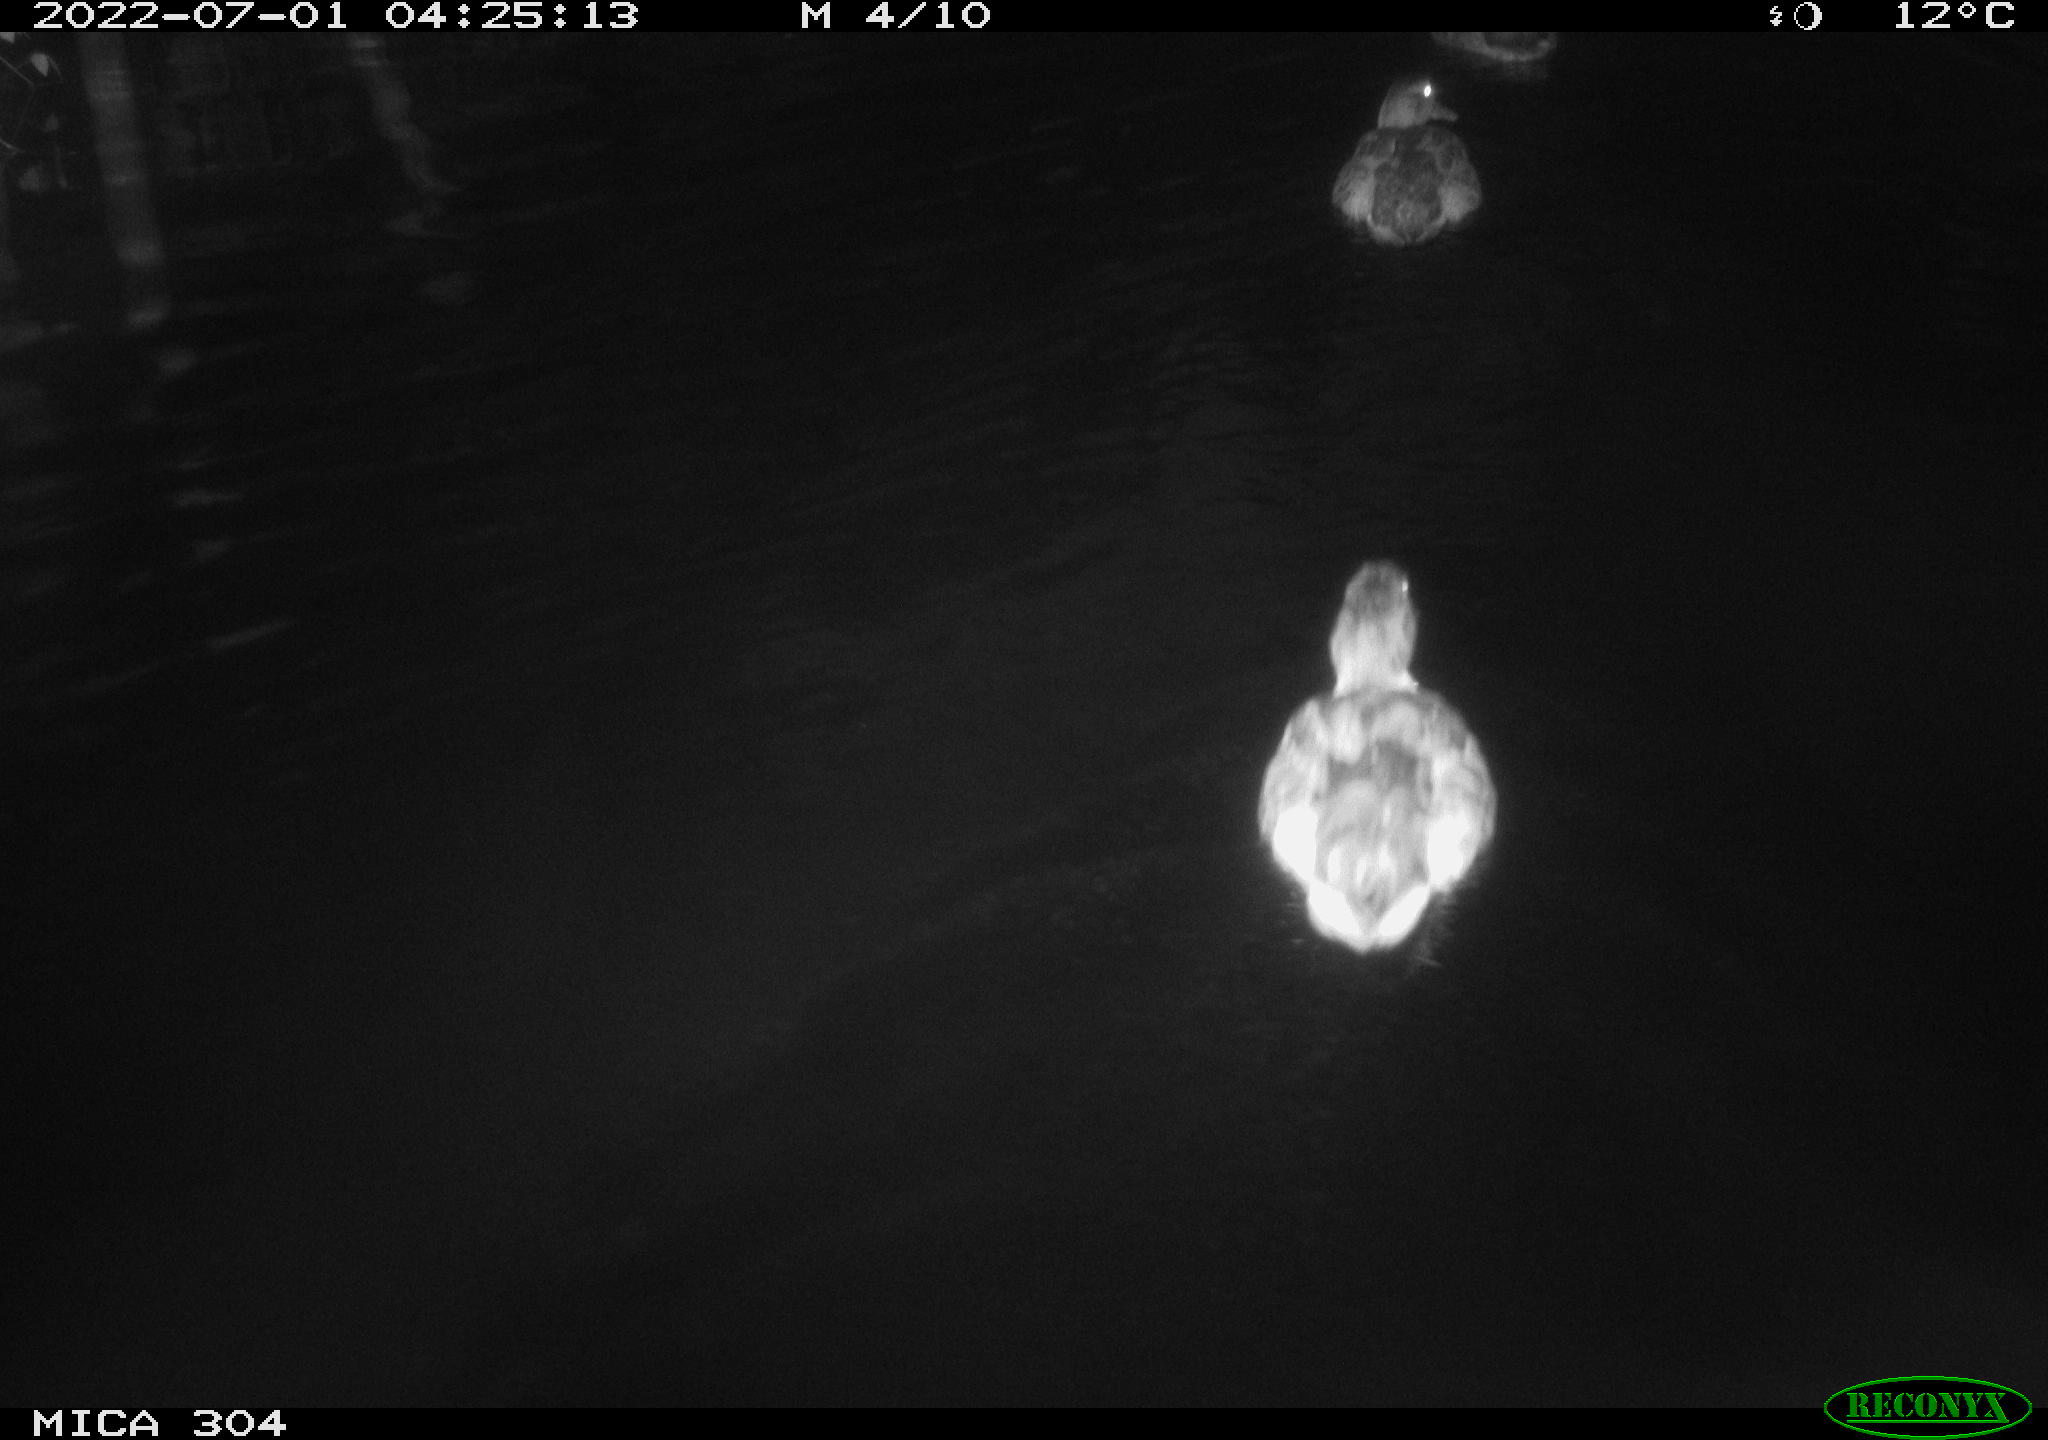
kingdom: Animalia
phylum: Chordata
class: Aves
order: Anseriformes
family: Anatidae
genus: Anas
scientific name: Anas platyrhynchos
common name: Mallard
